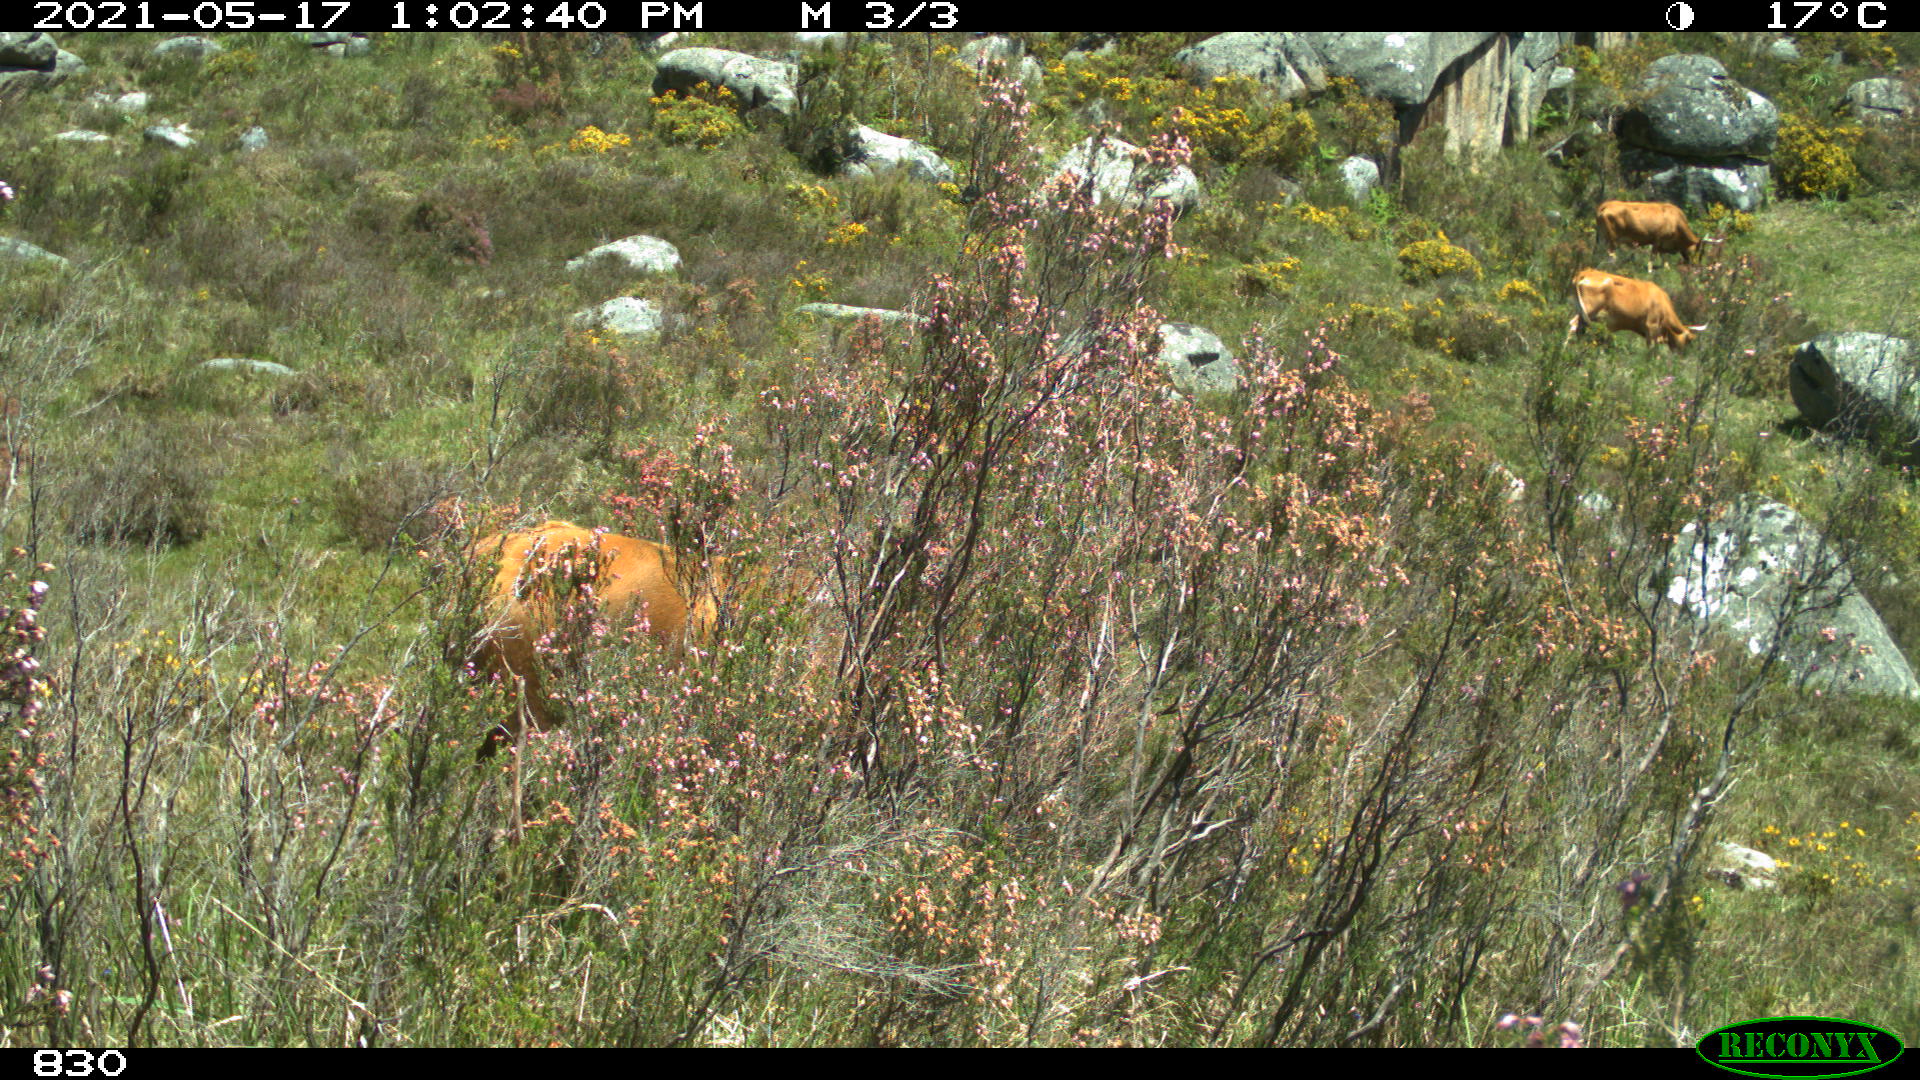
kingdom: Animalia
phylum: Chordata
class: Mammalia
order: Artiodactyla
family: Bovidae
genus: Bos
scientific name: Bos taurus
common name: Domesticated cattle
